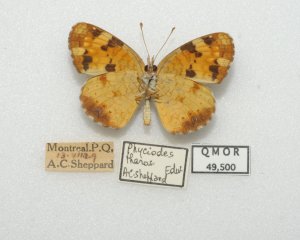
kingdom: Animalia
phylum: Arthropoda
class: Insecta
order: Lepidoptera
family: Nymphalidae
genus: Phyciodes
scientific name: Phyciodes tharos
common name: Northern Crescent
